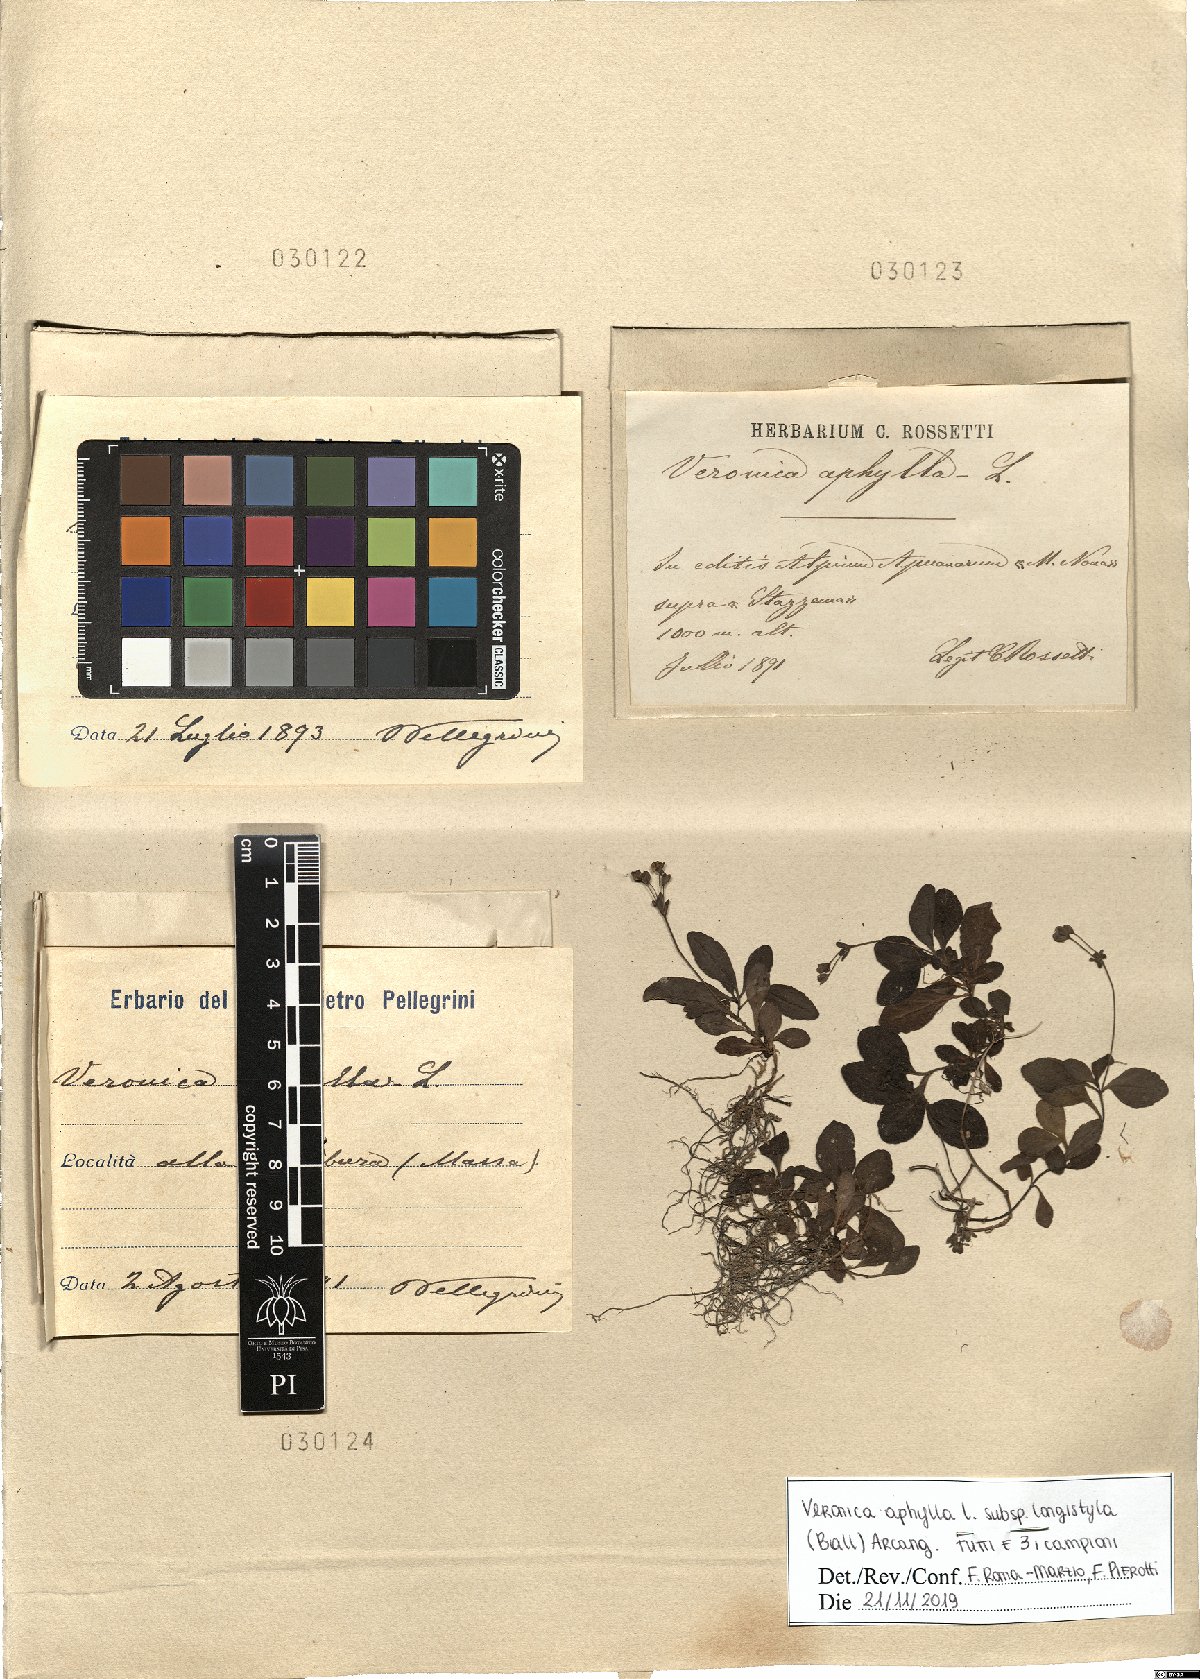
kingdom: Plantae
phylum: Tracheophyta
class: Magnoliopsida
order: Lamiales
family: Plantaginaceae
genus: Veronica
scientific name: Veronica aphylla
